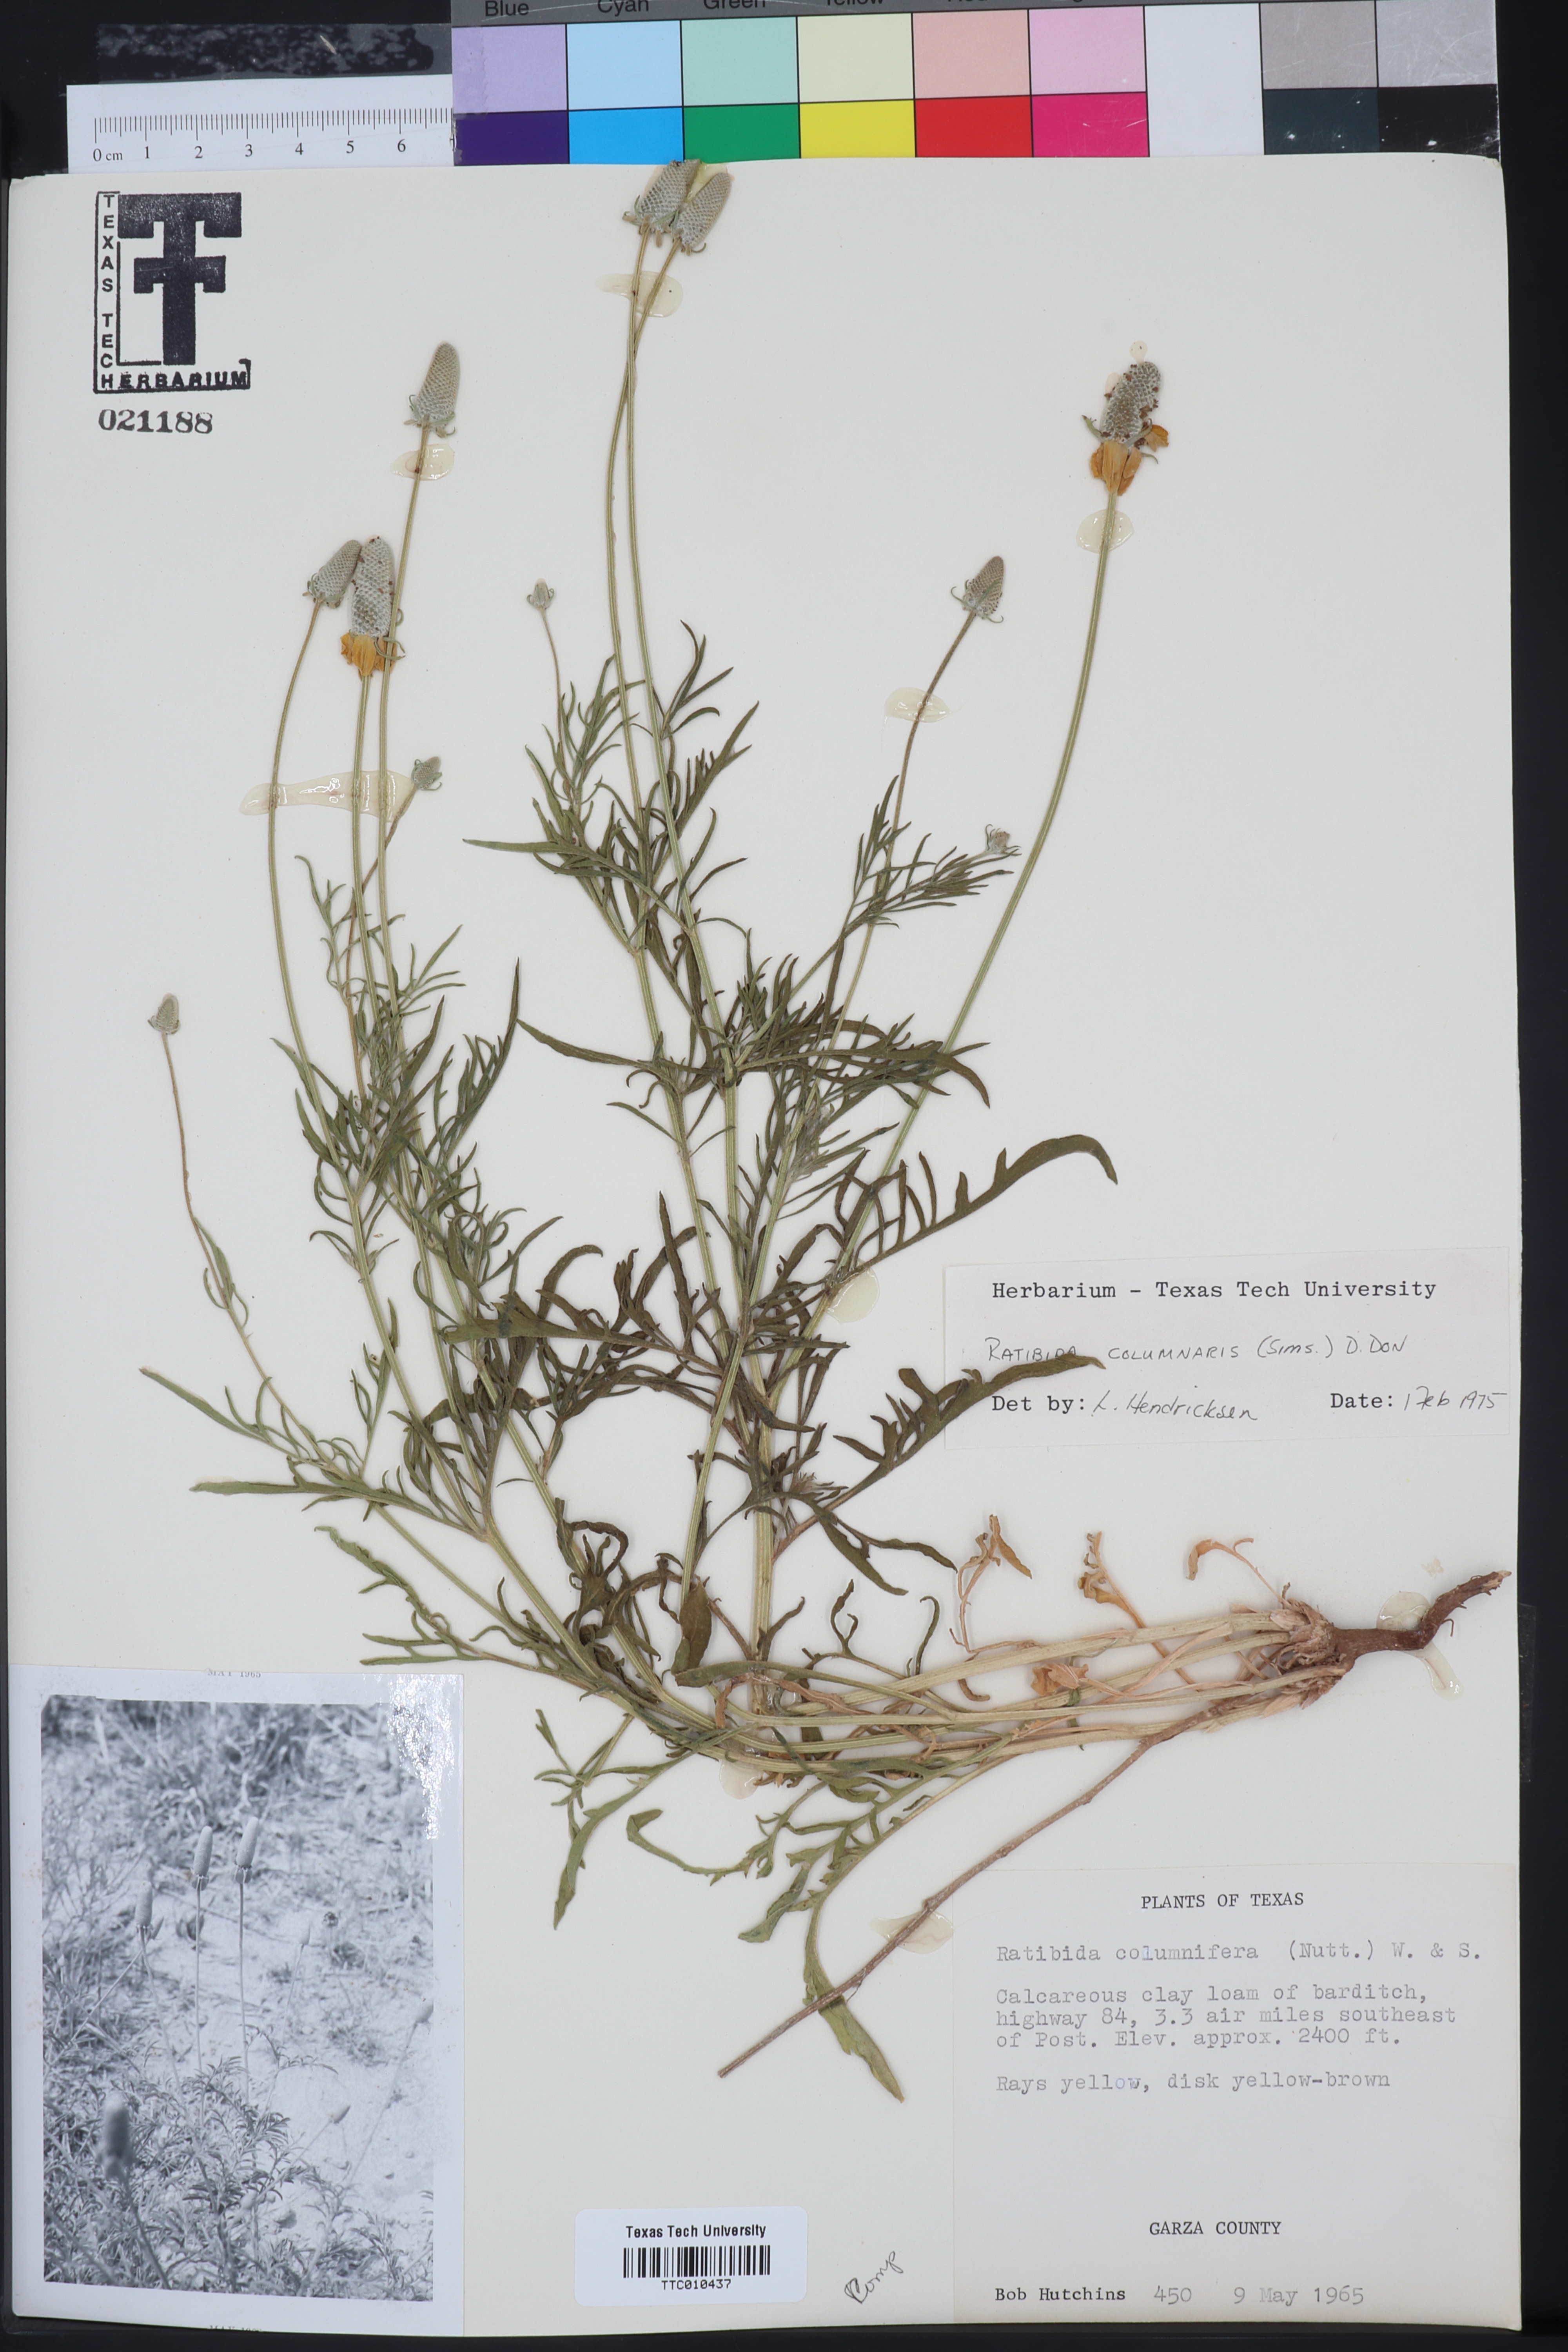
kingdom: Plantae
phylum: Tracheophyta
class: Magnoliopsida
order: Asterales
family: Asteraceae
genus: Ratibida
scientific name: Ratibida columnifera
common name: Prairie coneflower
